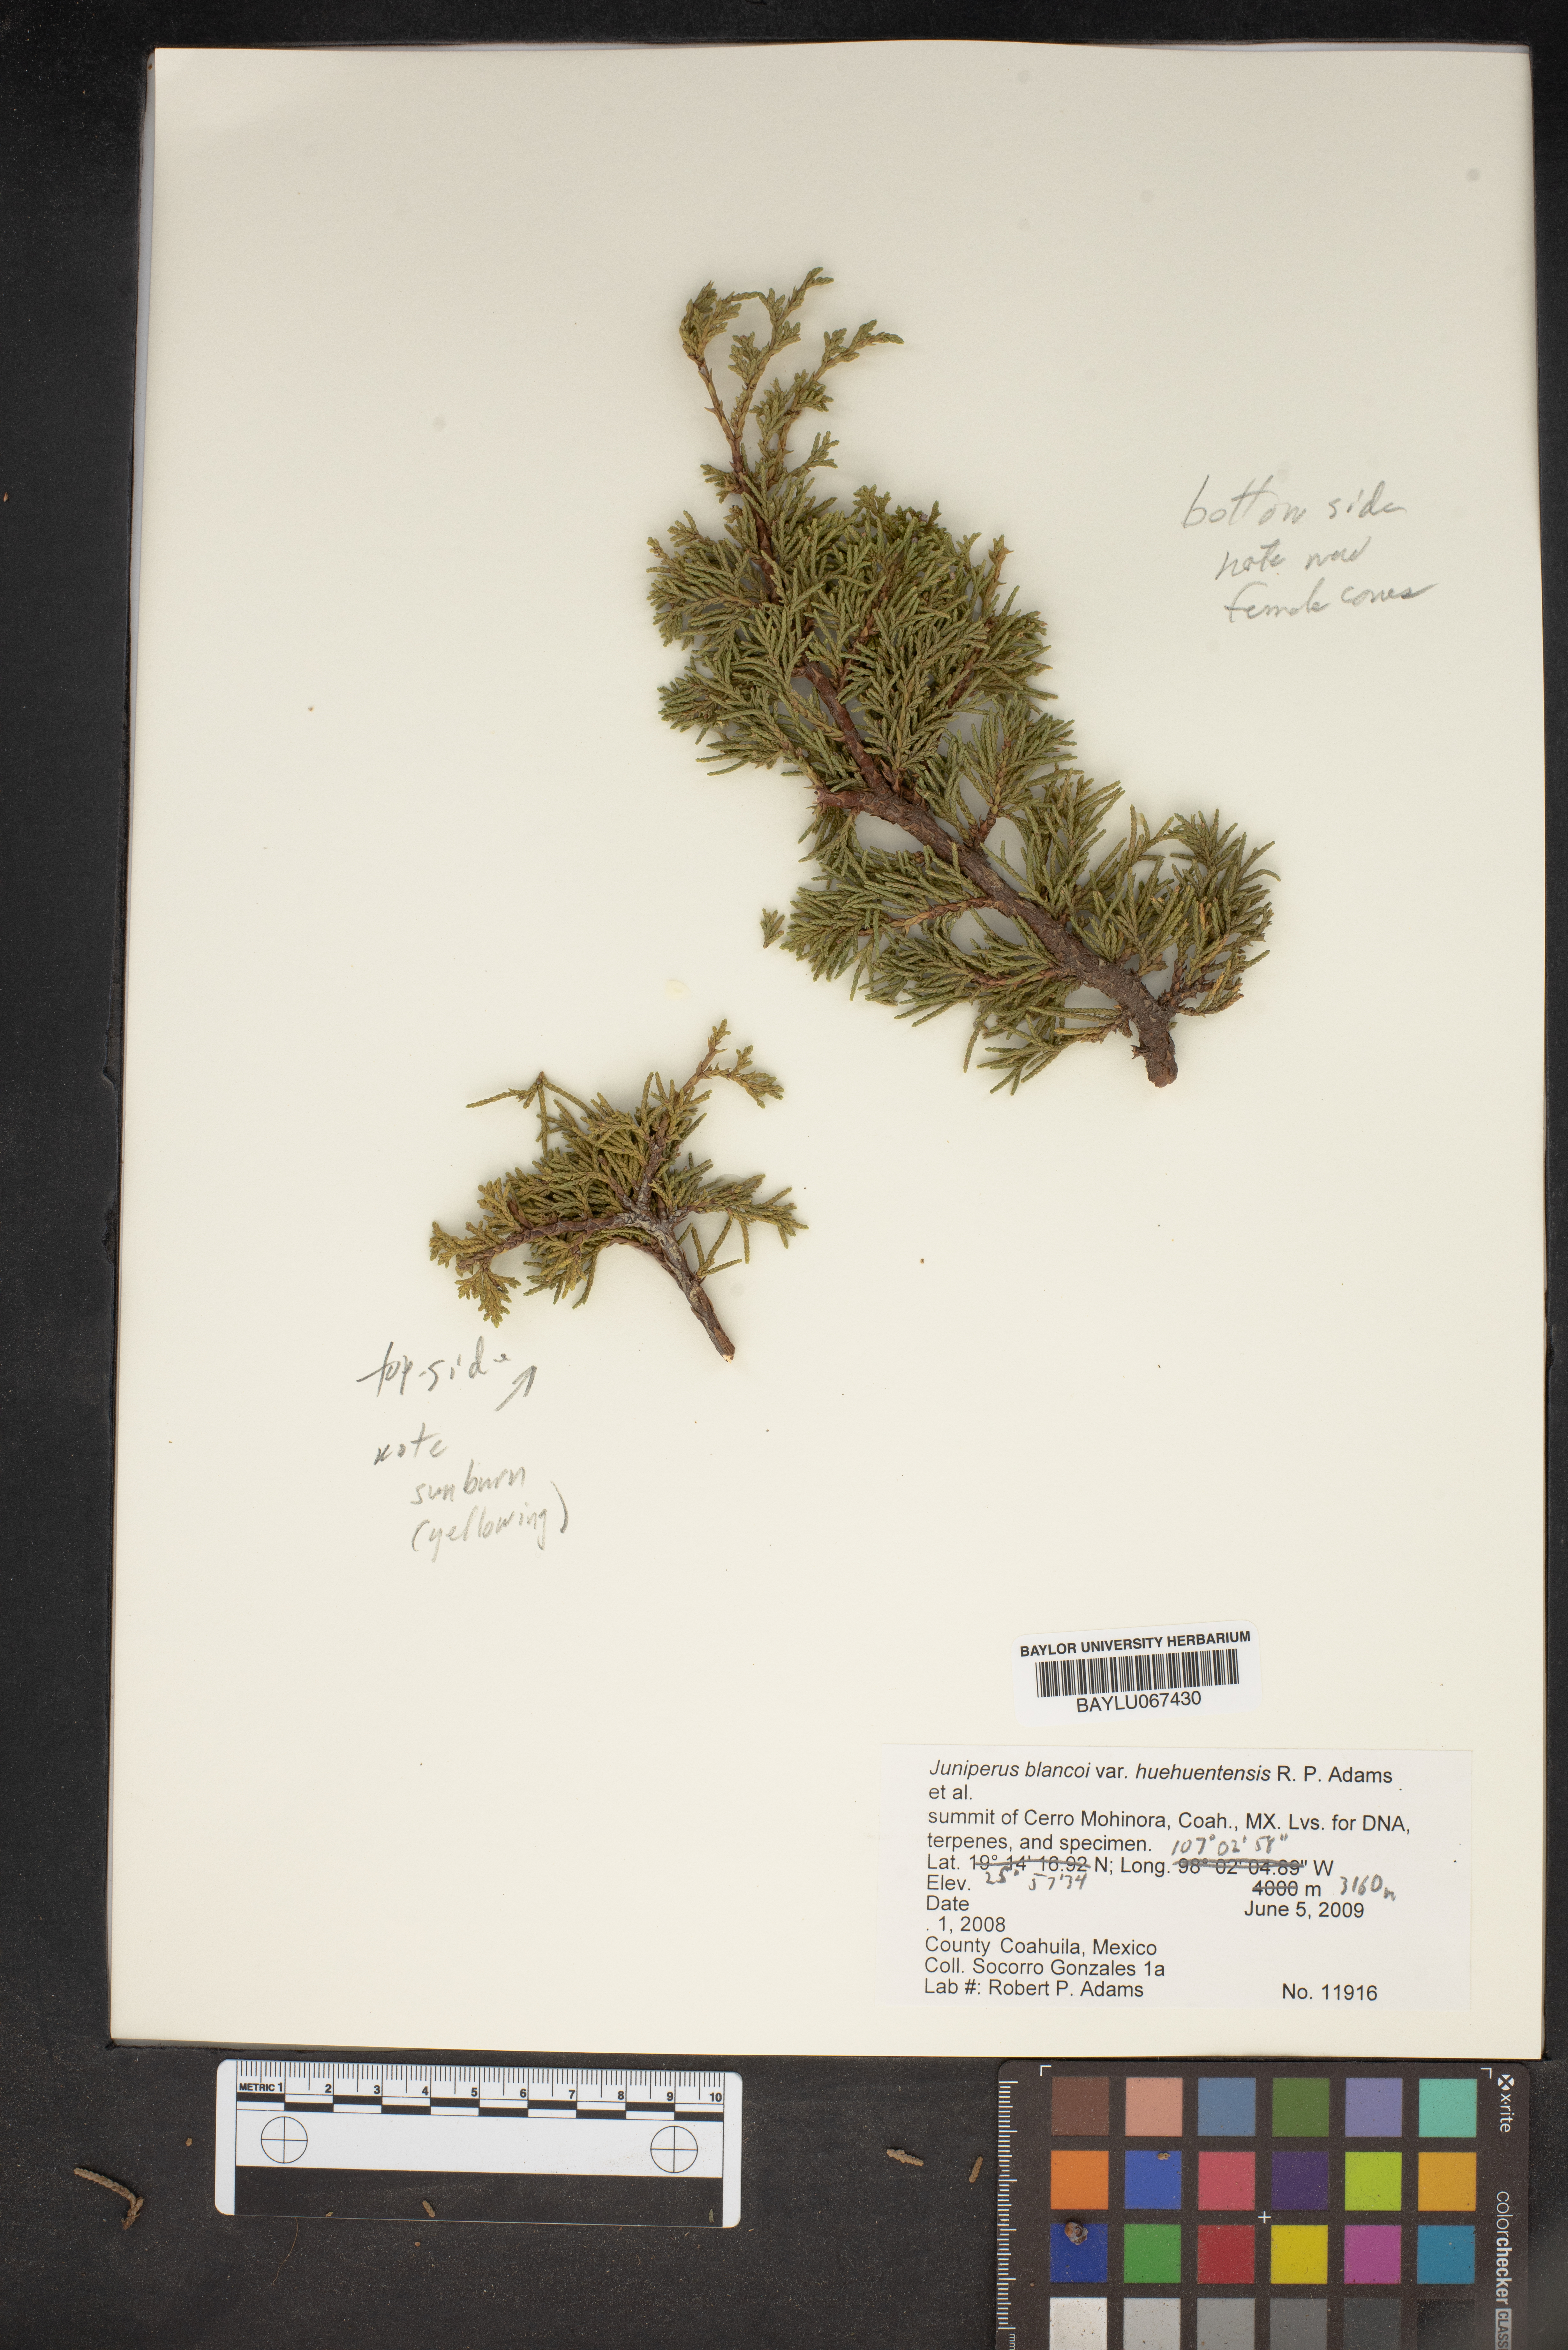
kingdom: Plantae
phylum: Tracheophyta
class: Pinopsida
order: Pinales
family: Cupressaceae
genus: Juniperus
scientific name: Juniperus blancoi
